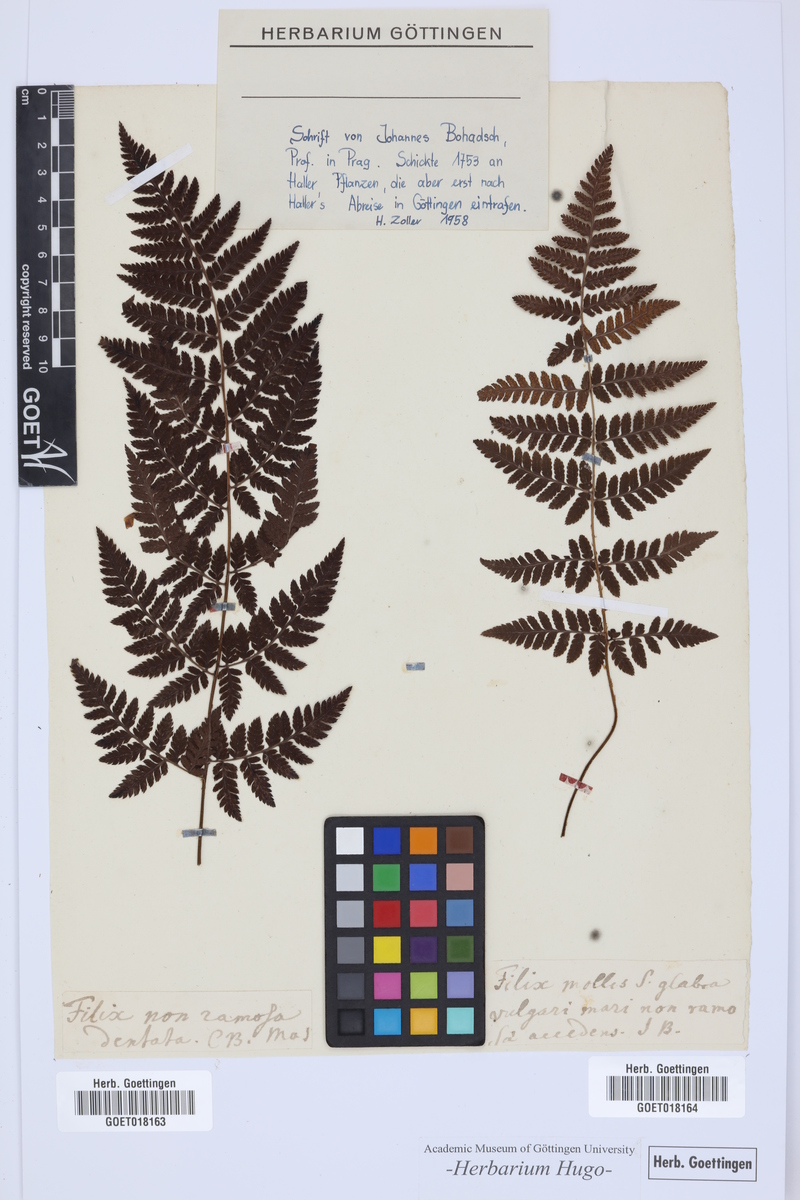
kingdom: Plantae
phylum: Tracheophyta
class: Polypodiopsida
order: Polypodiales
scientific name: Polypodiales
